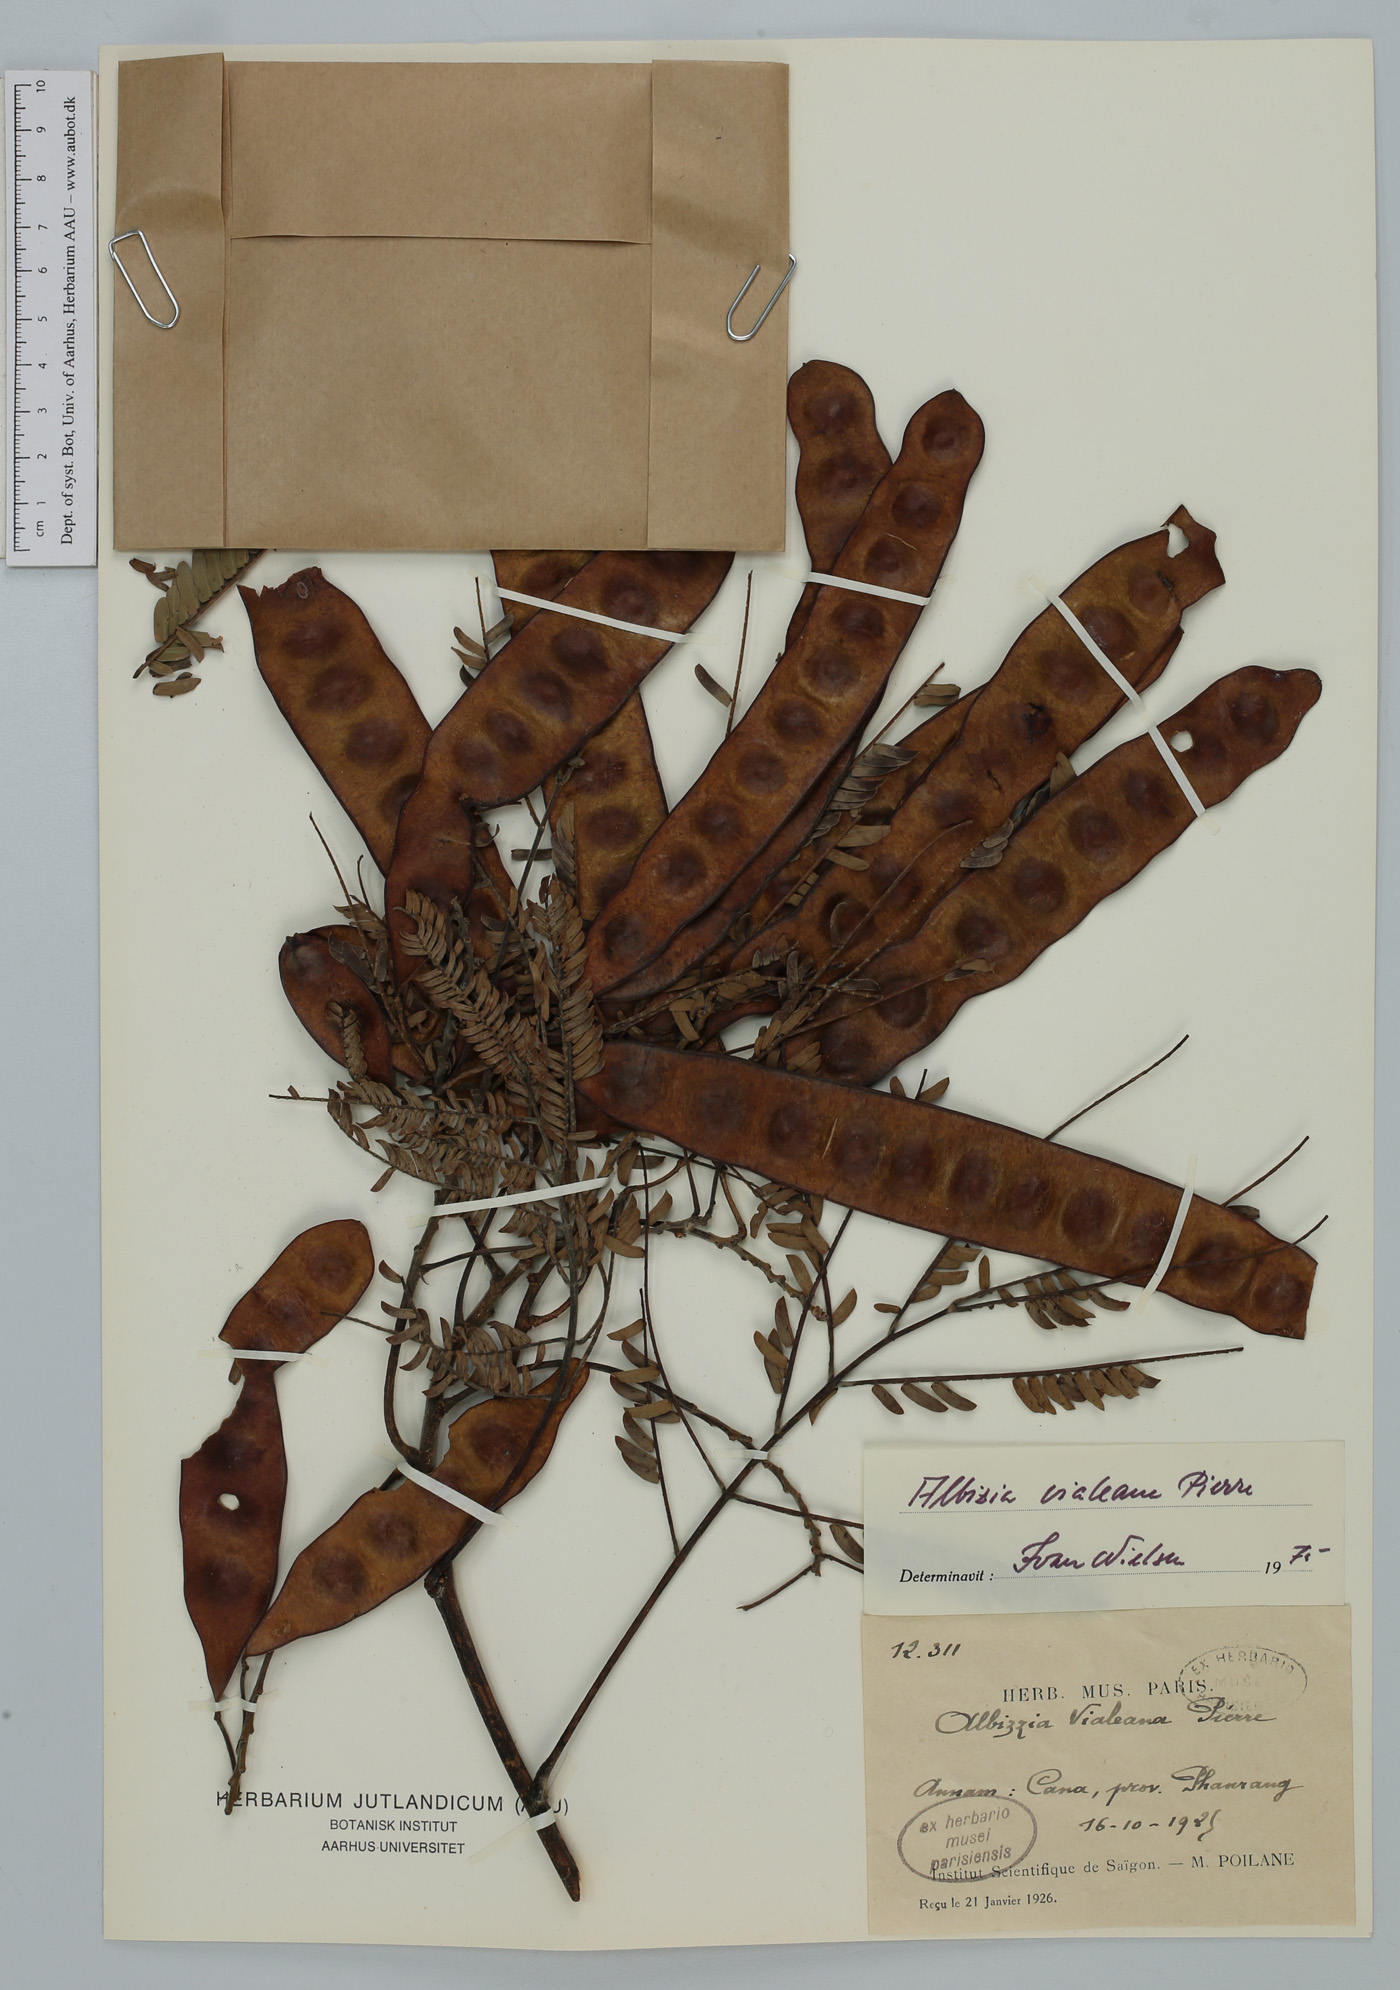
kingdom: Plantae
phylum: Tracheophyta
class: Magnoliopsida
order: Fabales
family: Fabaceae
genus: Albizia
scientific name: Albizia vialeana
